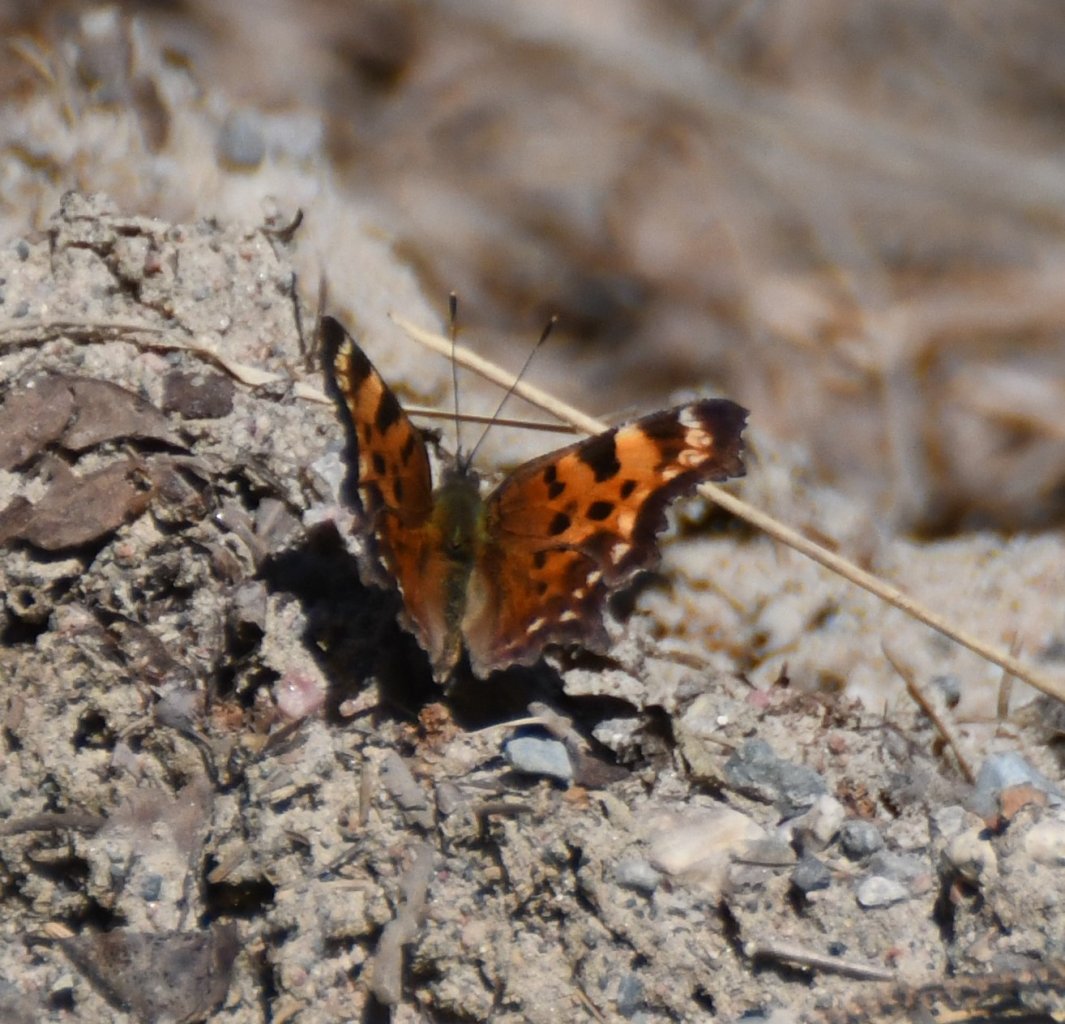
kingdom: Animalia
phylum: Arthropoda
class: Insecta
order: Lepidoptera
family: Nymphalidae
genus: Polygonia
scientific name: Polygonia faunus
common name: Green Comma
